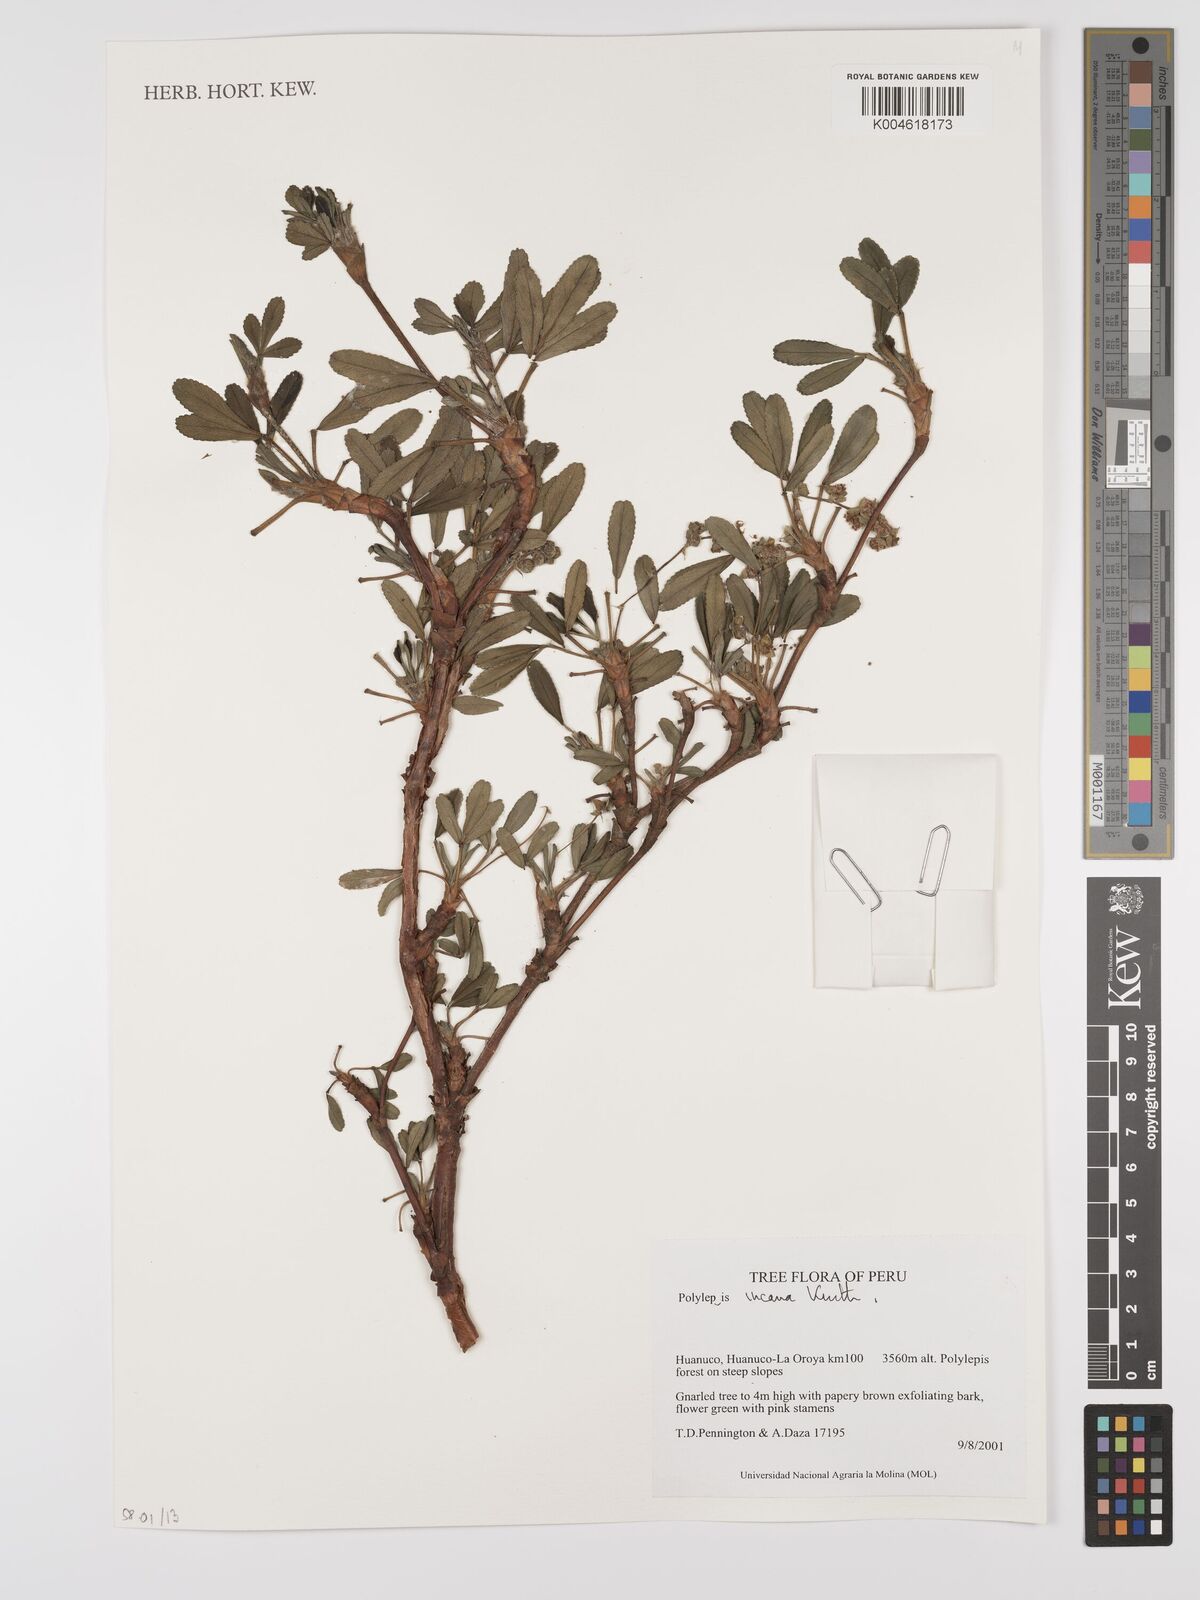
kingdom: Plantae
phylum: Tracheophyta
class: Magnoliopsida
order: Rosales
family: Rosaceae
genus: Polylepis
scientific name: Polylepis incana
